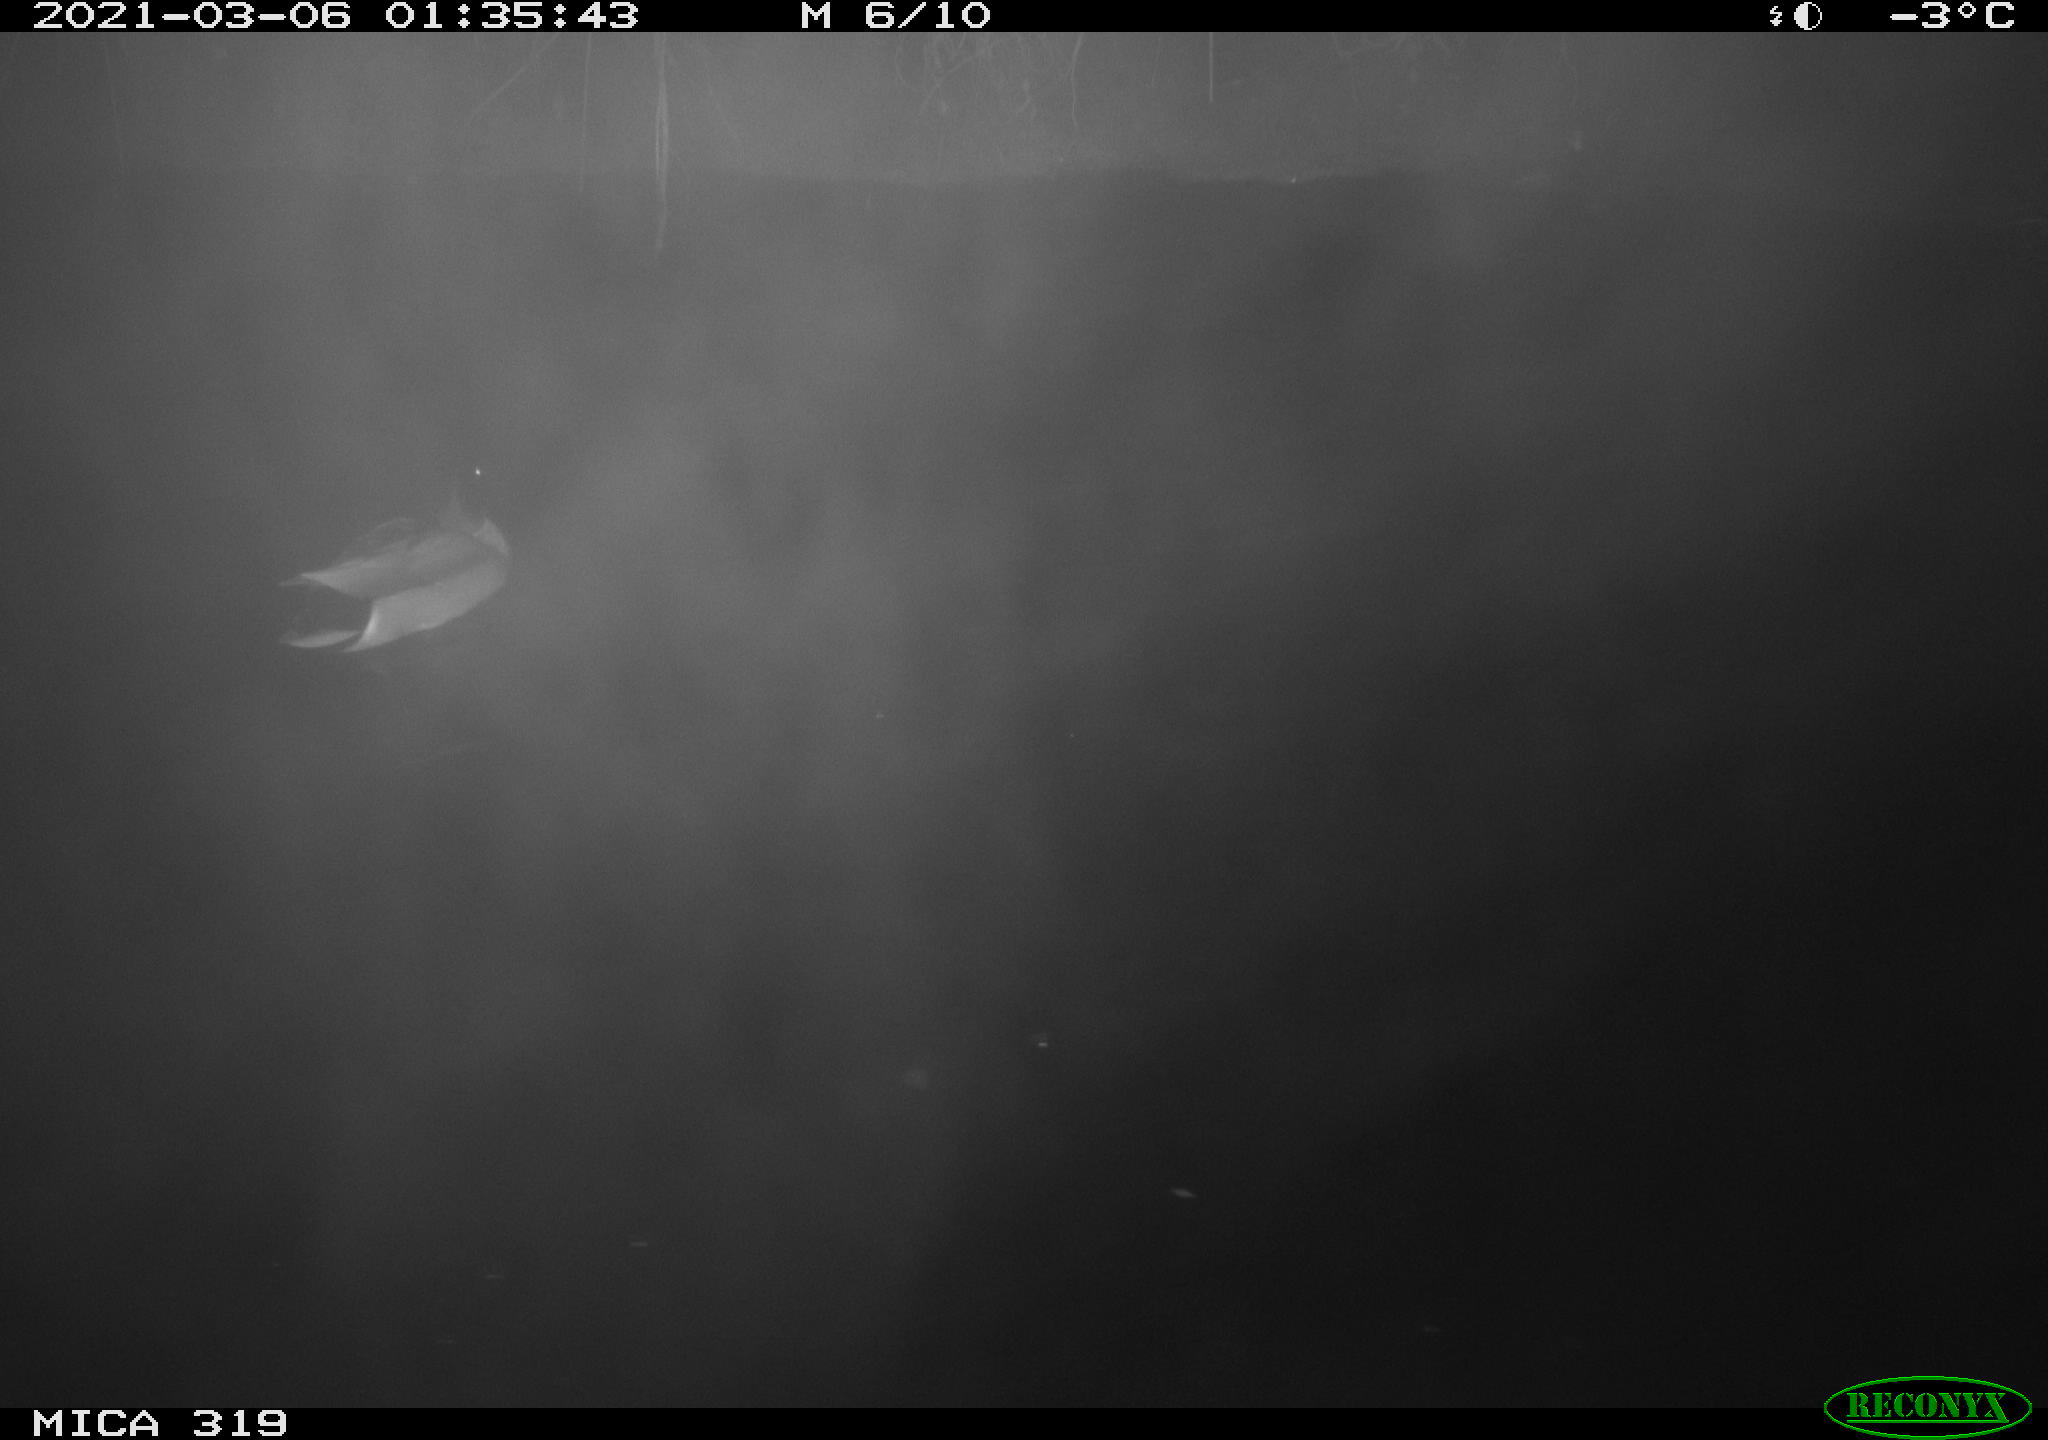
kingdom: Animalia
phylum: Chordata
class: Aves
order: Anseriformes
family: Anatidae
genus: Anas
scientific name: Anas platyrhynchos
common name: Mallard
